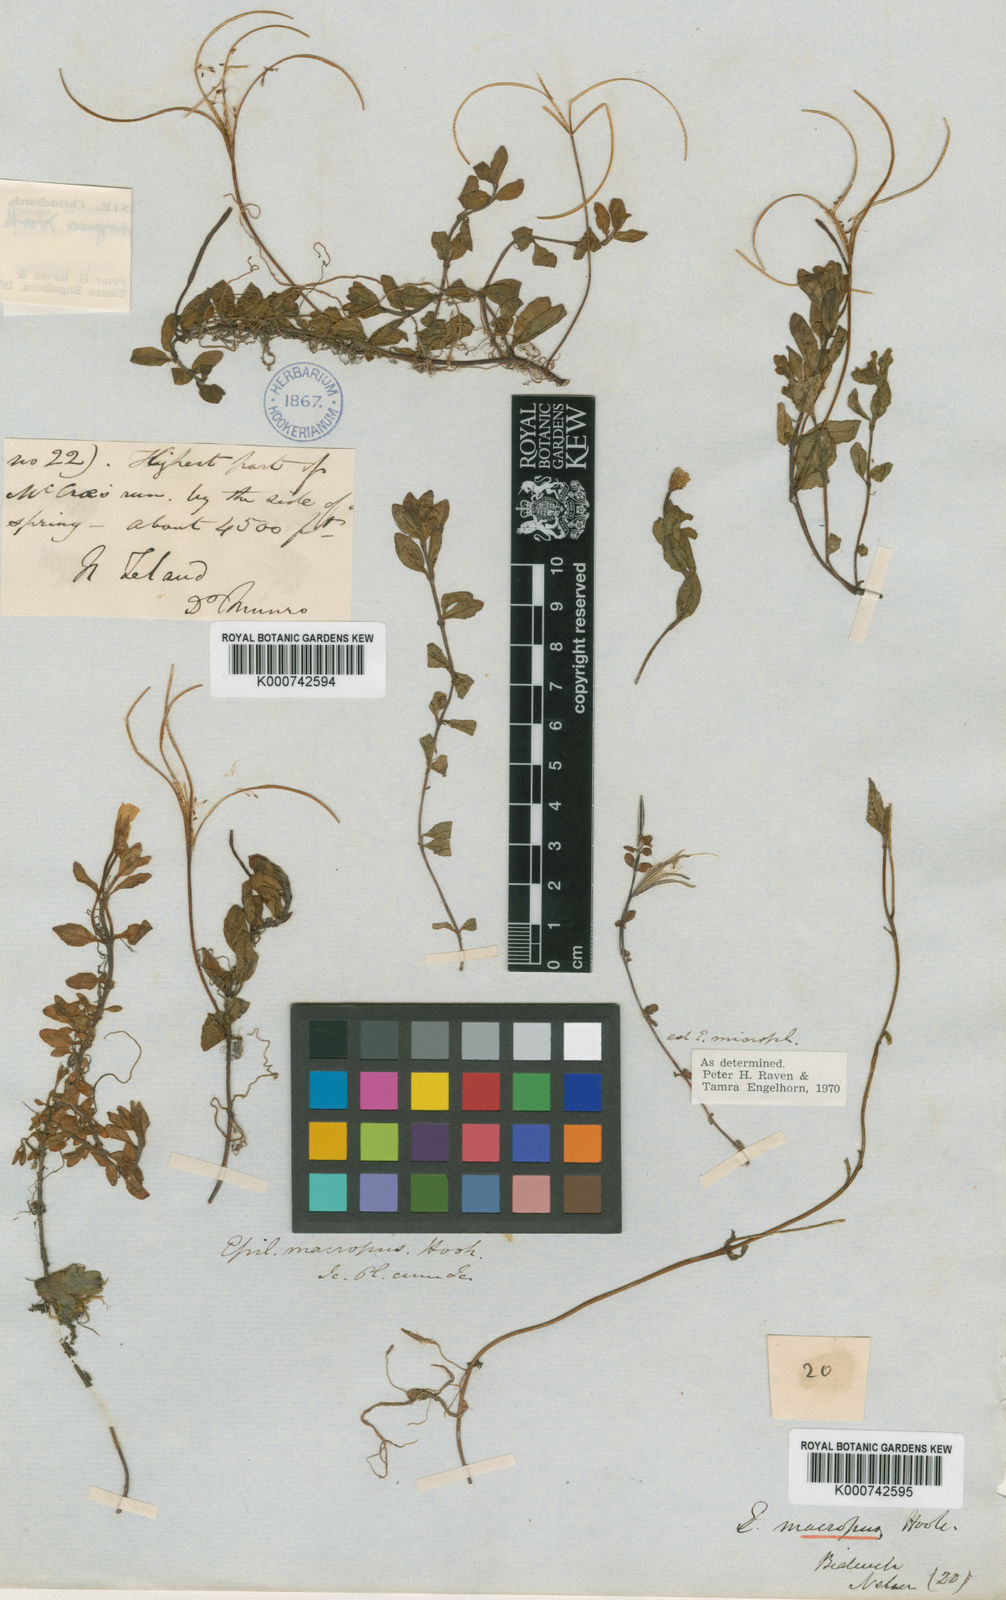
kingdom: Plantae
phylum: Tracheophyta
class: Magnoliopsida
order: Myrtales
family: Onagraceae
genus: Epilobium
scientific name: Epilobium macropus
